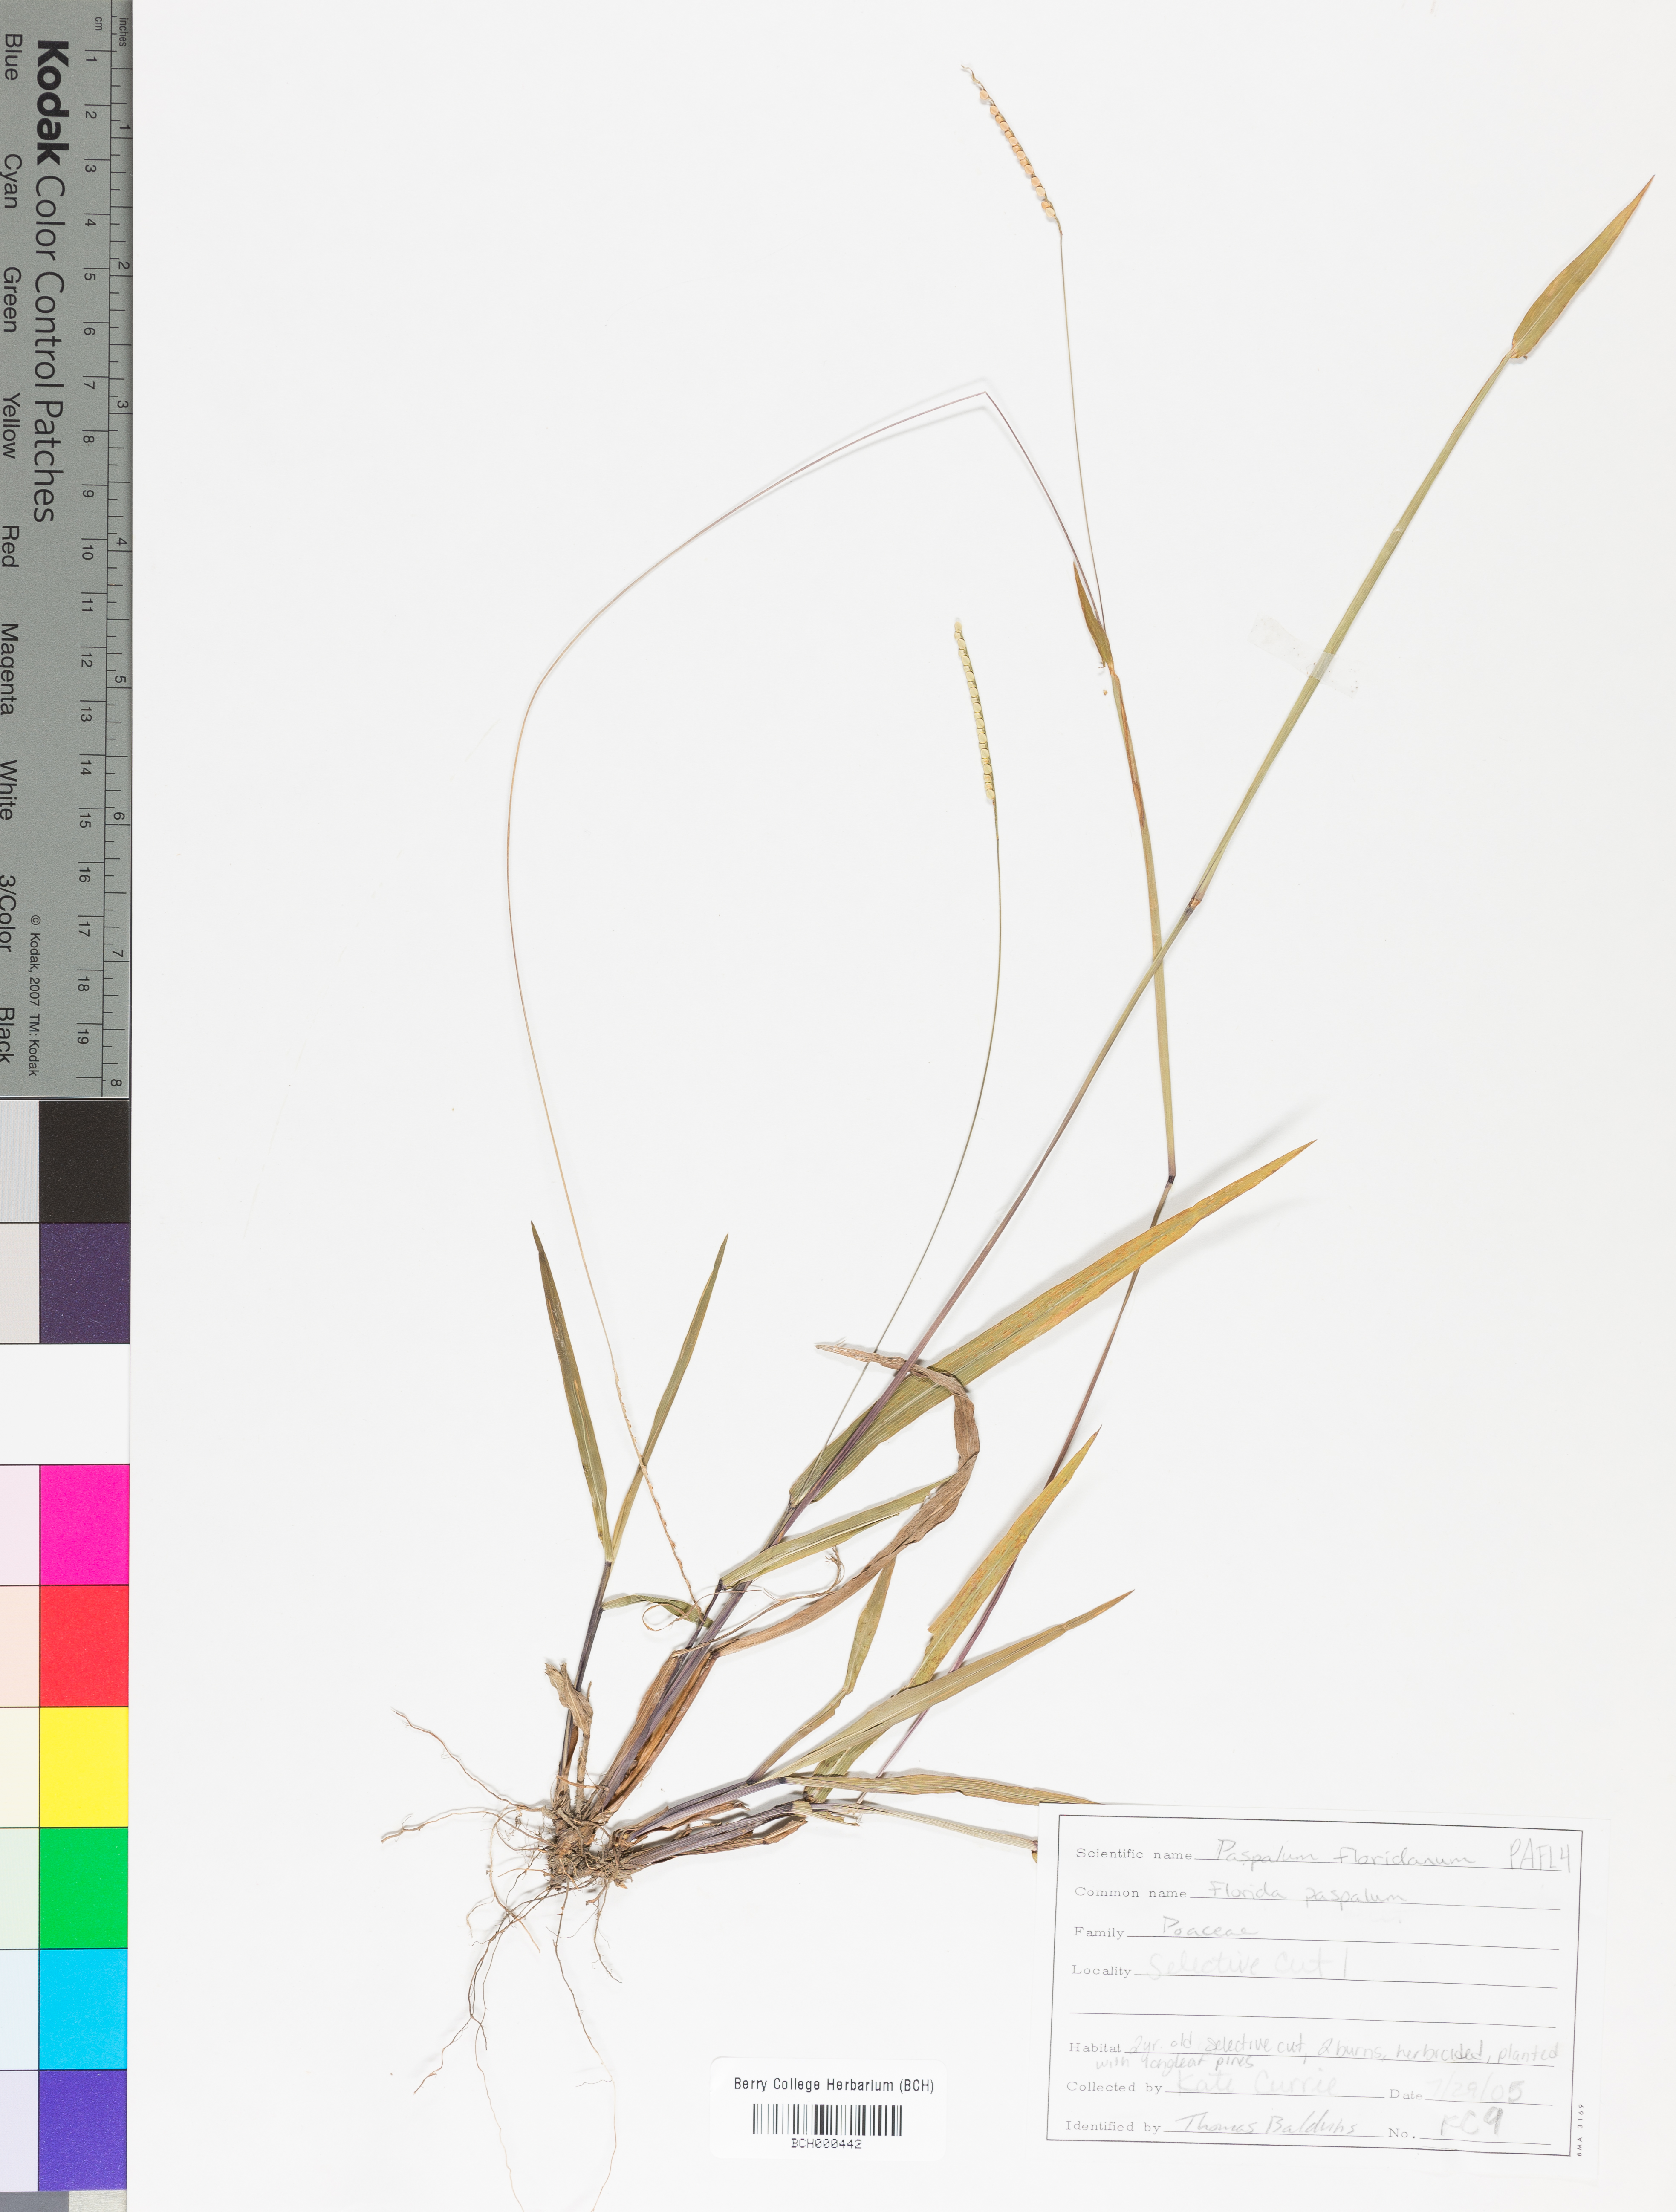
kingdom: Plantae
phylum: Tracheophyta
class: Liliopsida
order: Poales
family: Poaceae
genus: Paspalum
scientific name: Paspalum floridanum
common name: Florida paspalum
